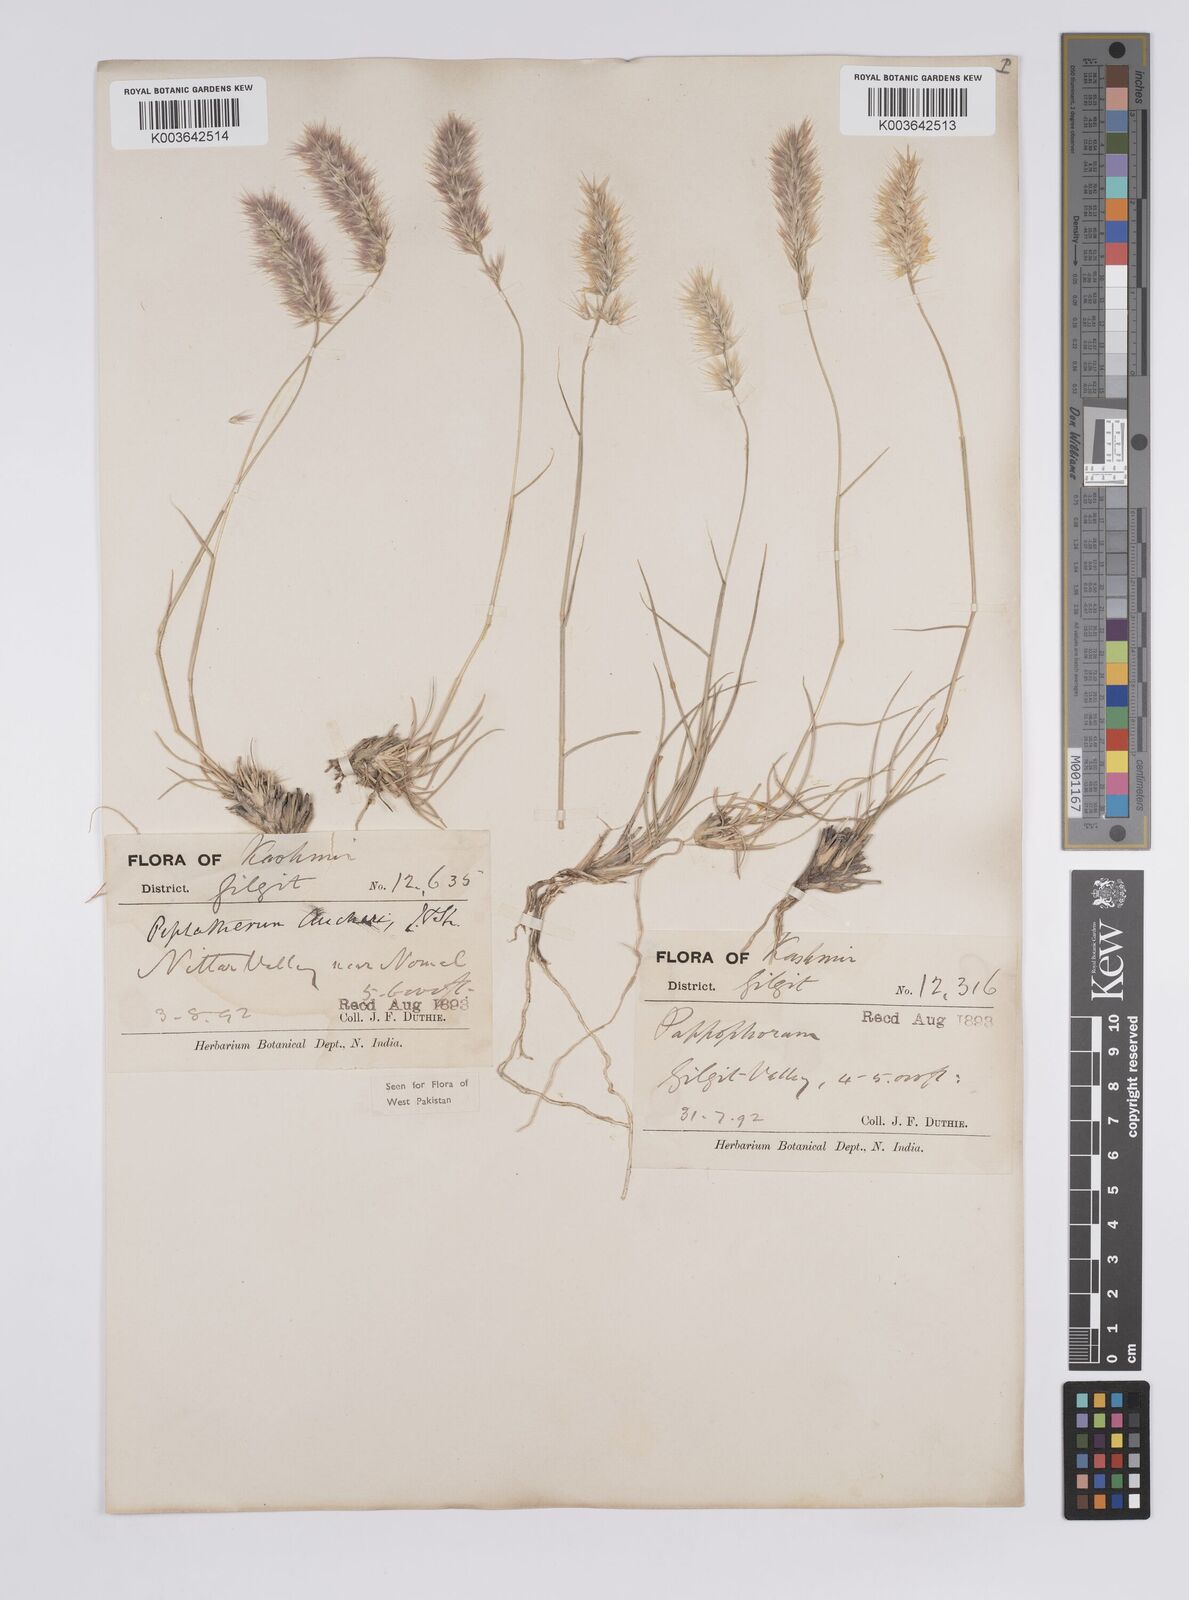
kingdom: Plantae
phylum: Tracheophyta
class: Liliopsida
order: Poales
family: Poaceae
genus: Enneapogon
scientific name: Enneapogon persicus
